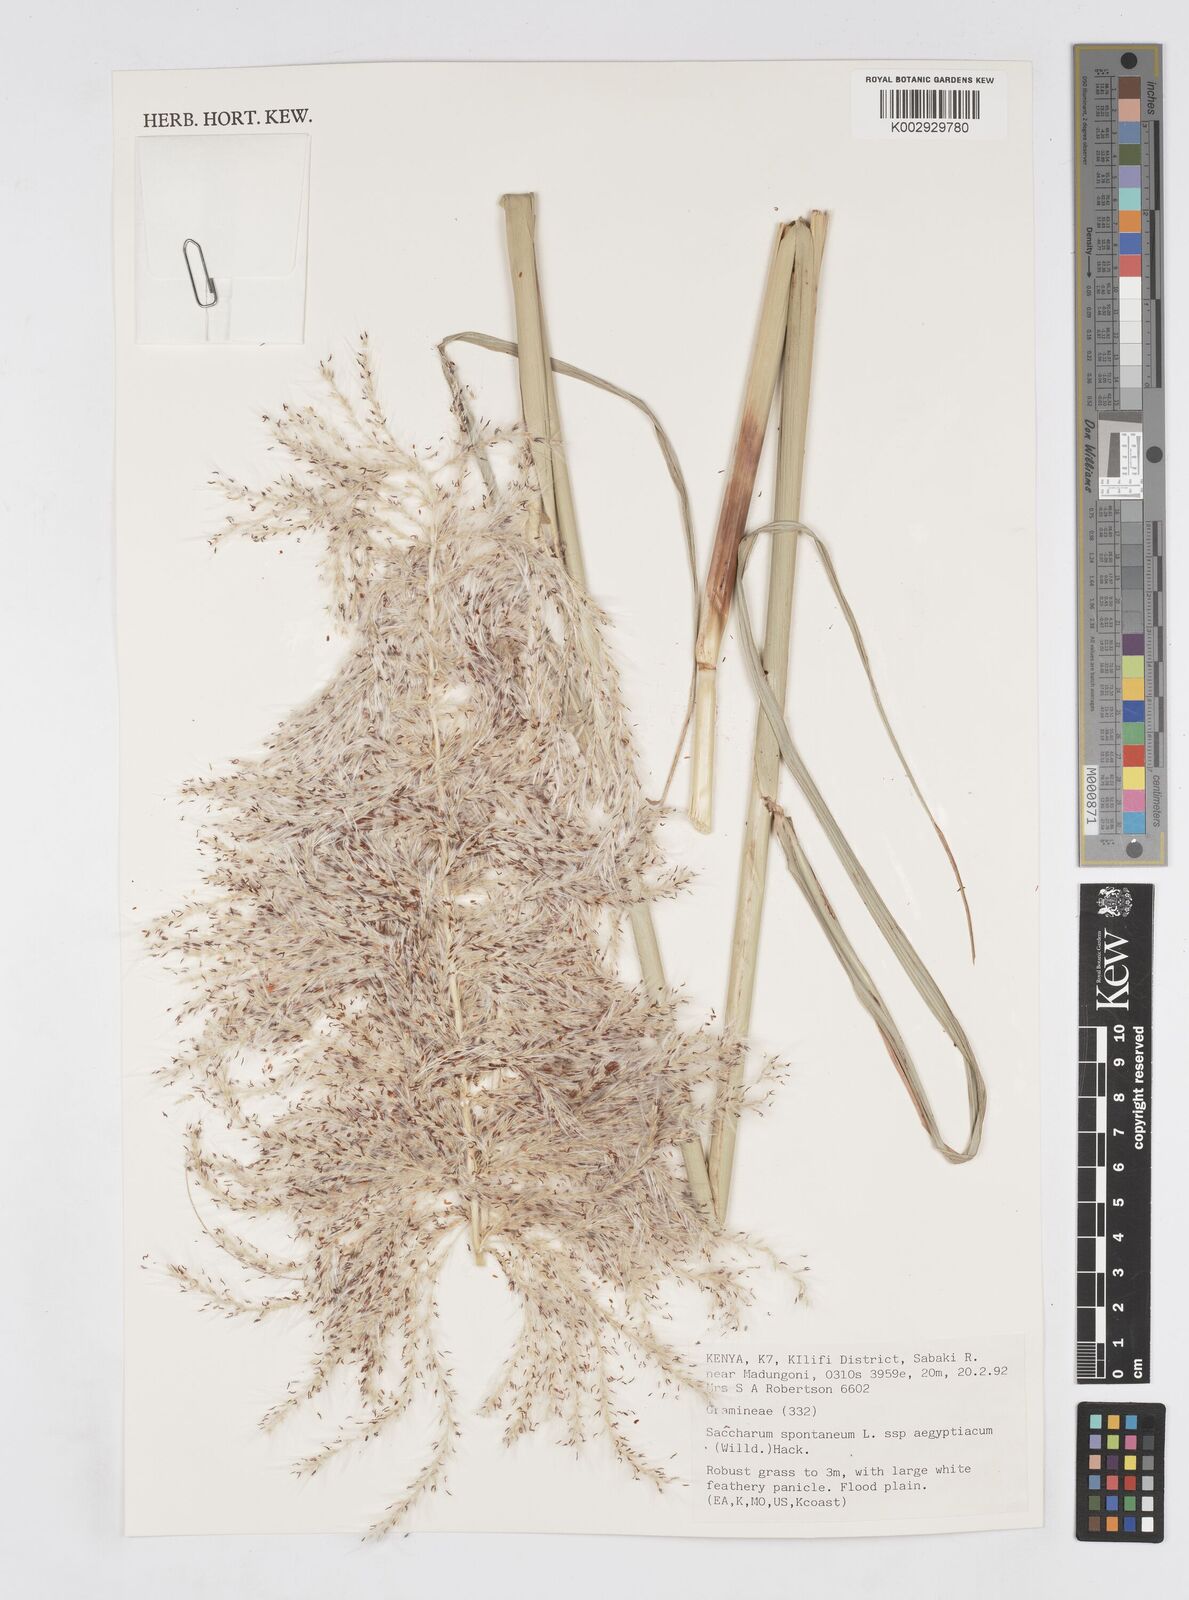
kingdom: Plantae
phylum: Tracheophyta
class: Liliopsida
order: Poales
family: Poaceae
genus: Saccharum
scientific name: Saccharum spontaneum
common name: Wild sugarcane
